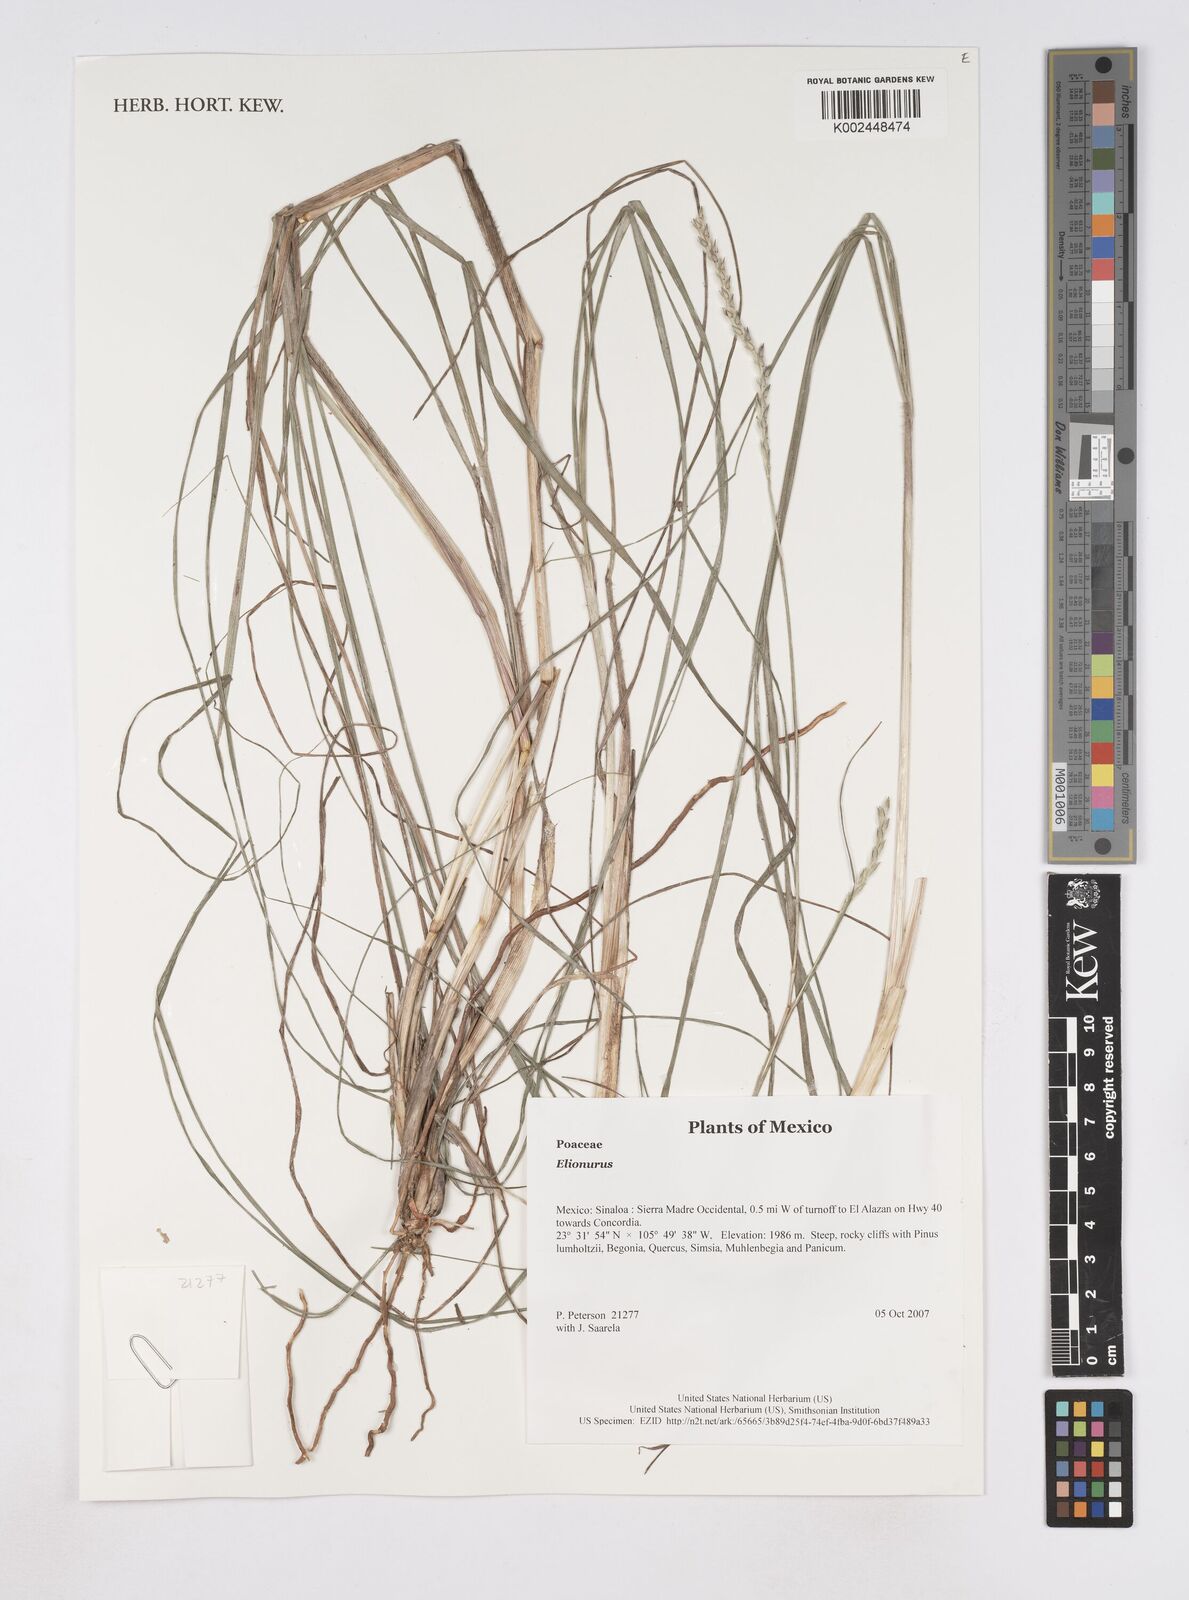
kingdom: Plantae
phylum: Tracheophyta
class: Liliopsida
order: Poales
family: Poaceae
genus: Elionurus
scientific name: Elionurus
